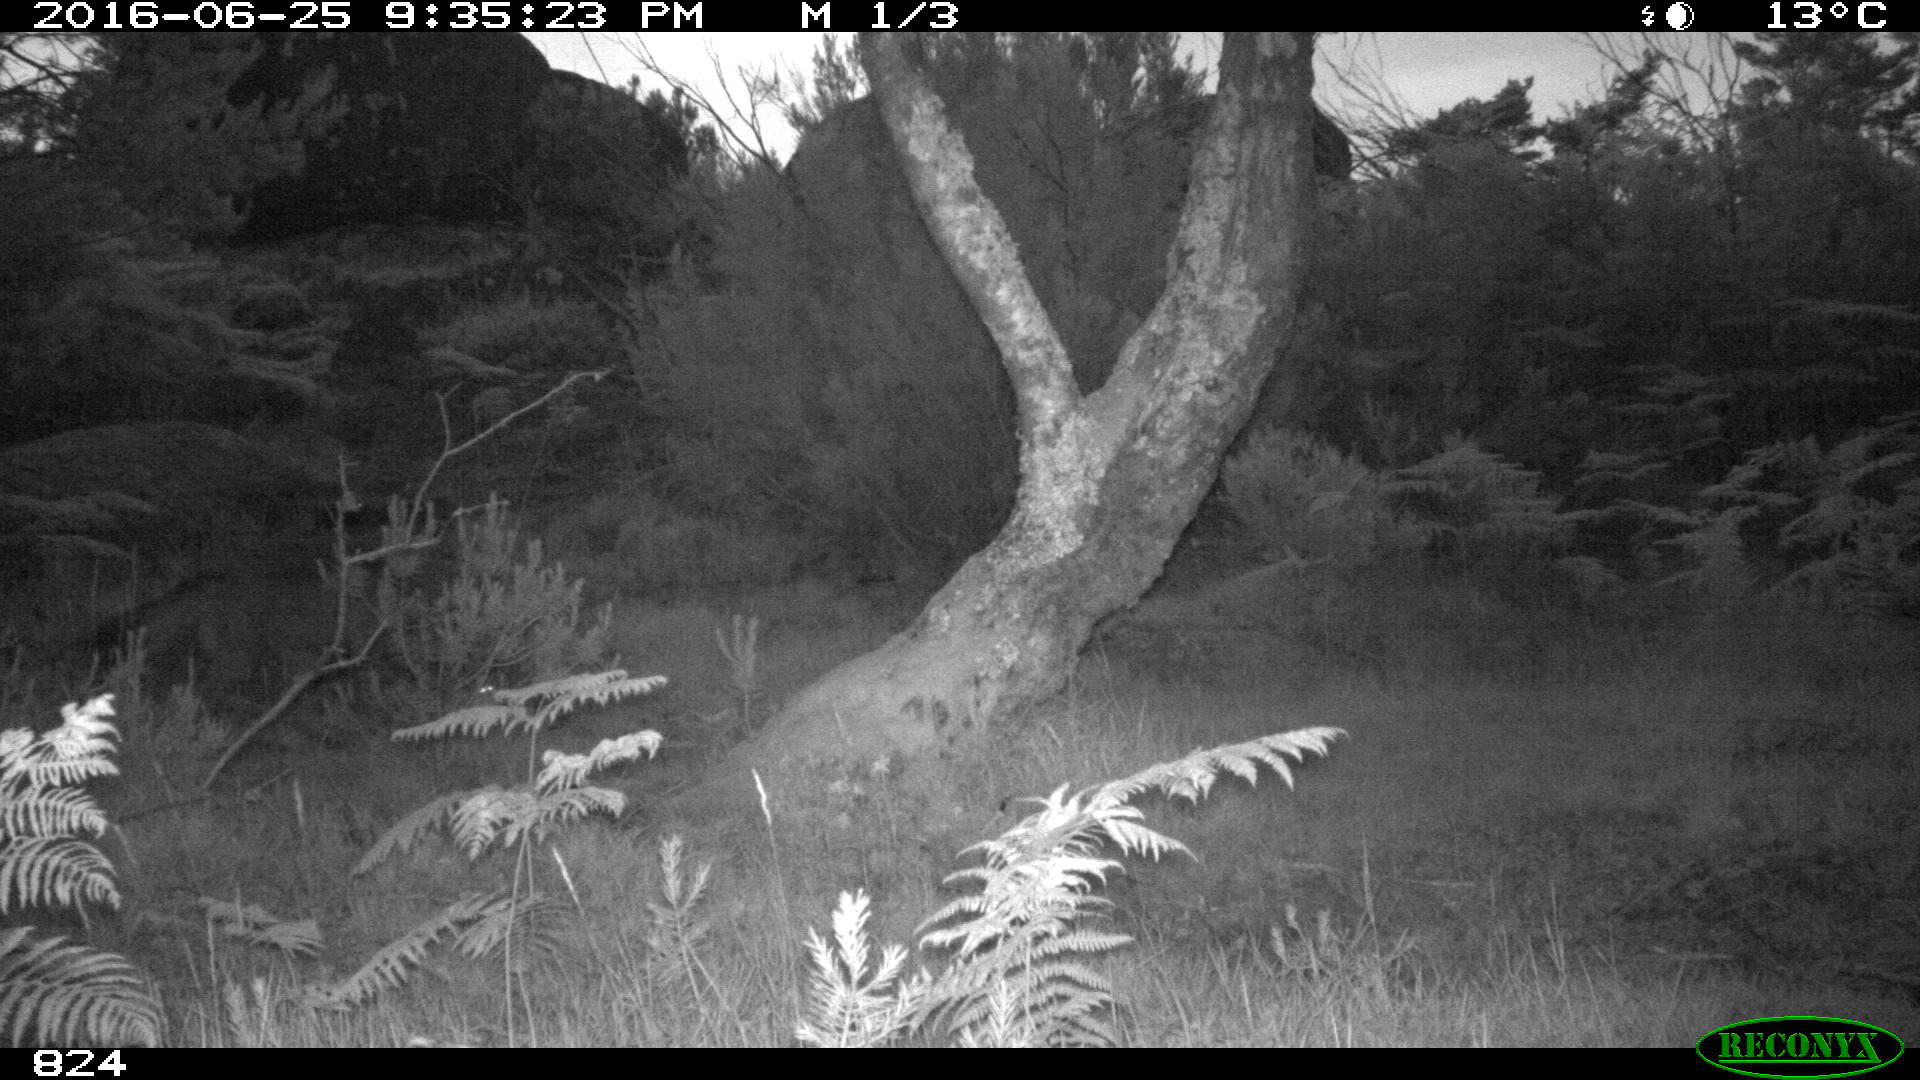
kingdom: Animalia
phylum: Chordata
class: Mammalia
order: Carnivora
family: Canidae
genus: Canis
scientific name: Canis lupus
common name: Gray wolf
